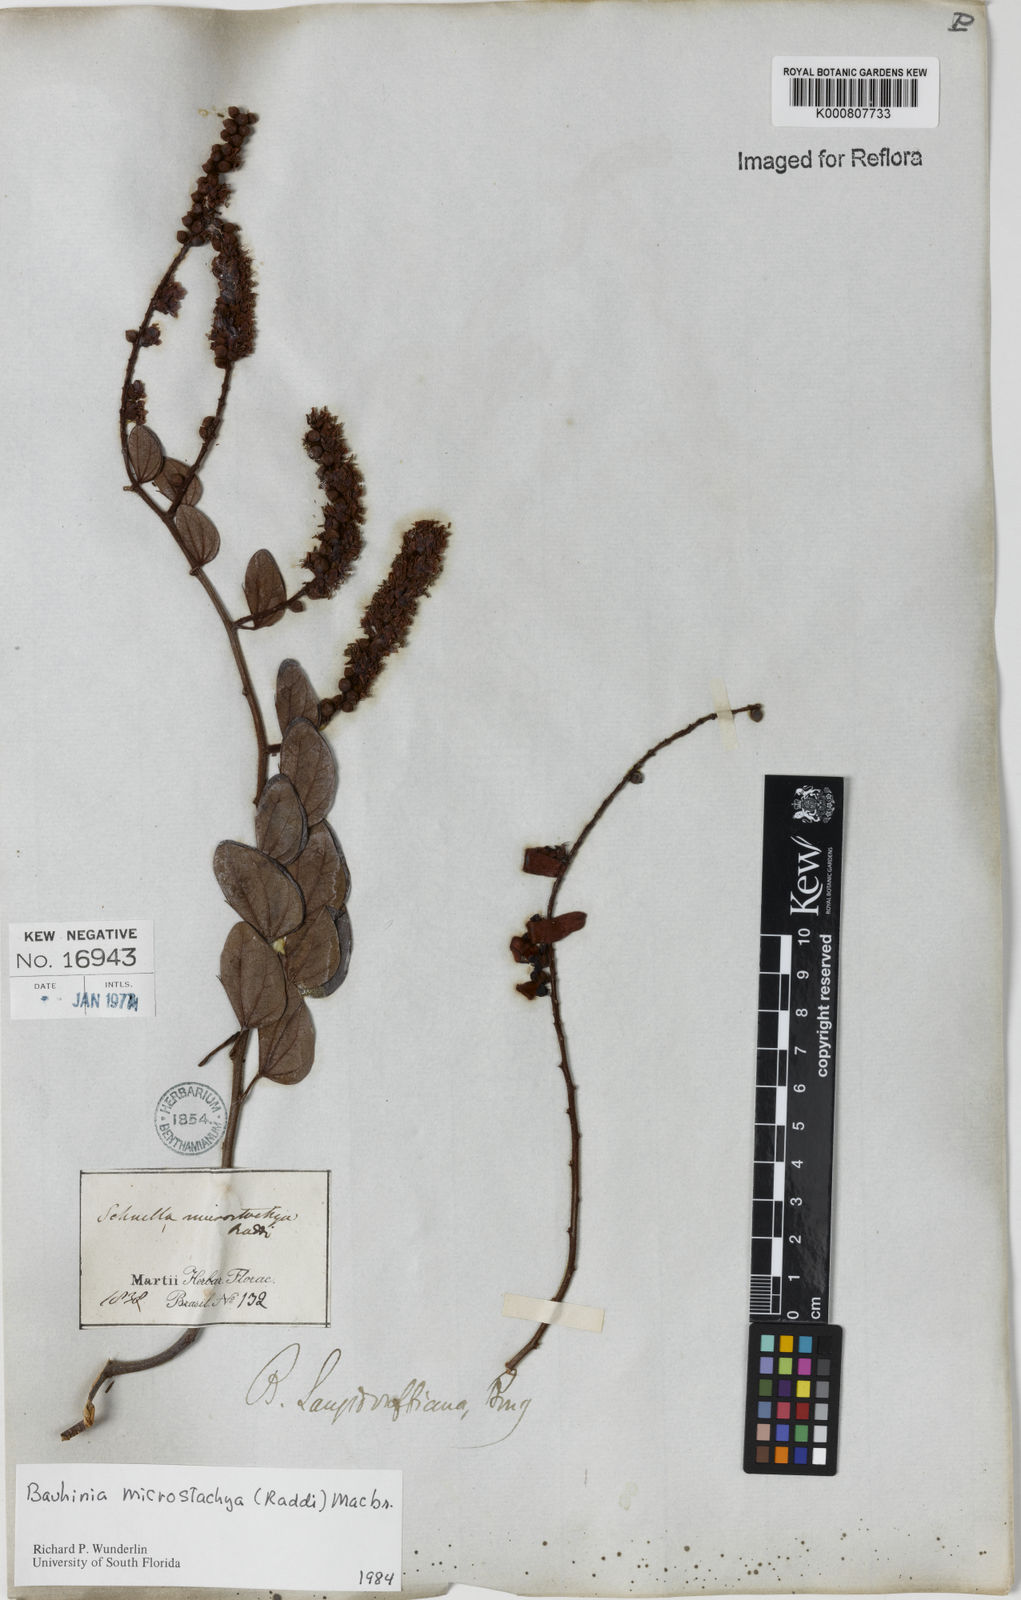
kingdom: Plantae
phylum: Tracheophyta
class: Magnoliopsida
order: Fabales
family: Fabaceae
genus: Schnella
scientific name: Schnella microstachya
